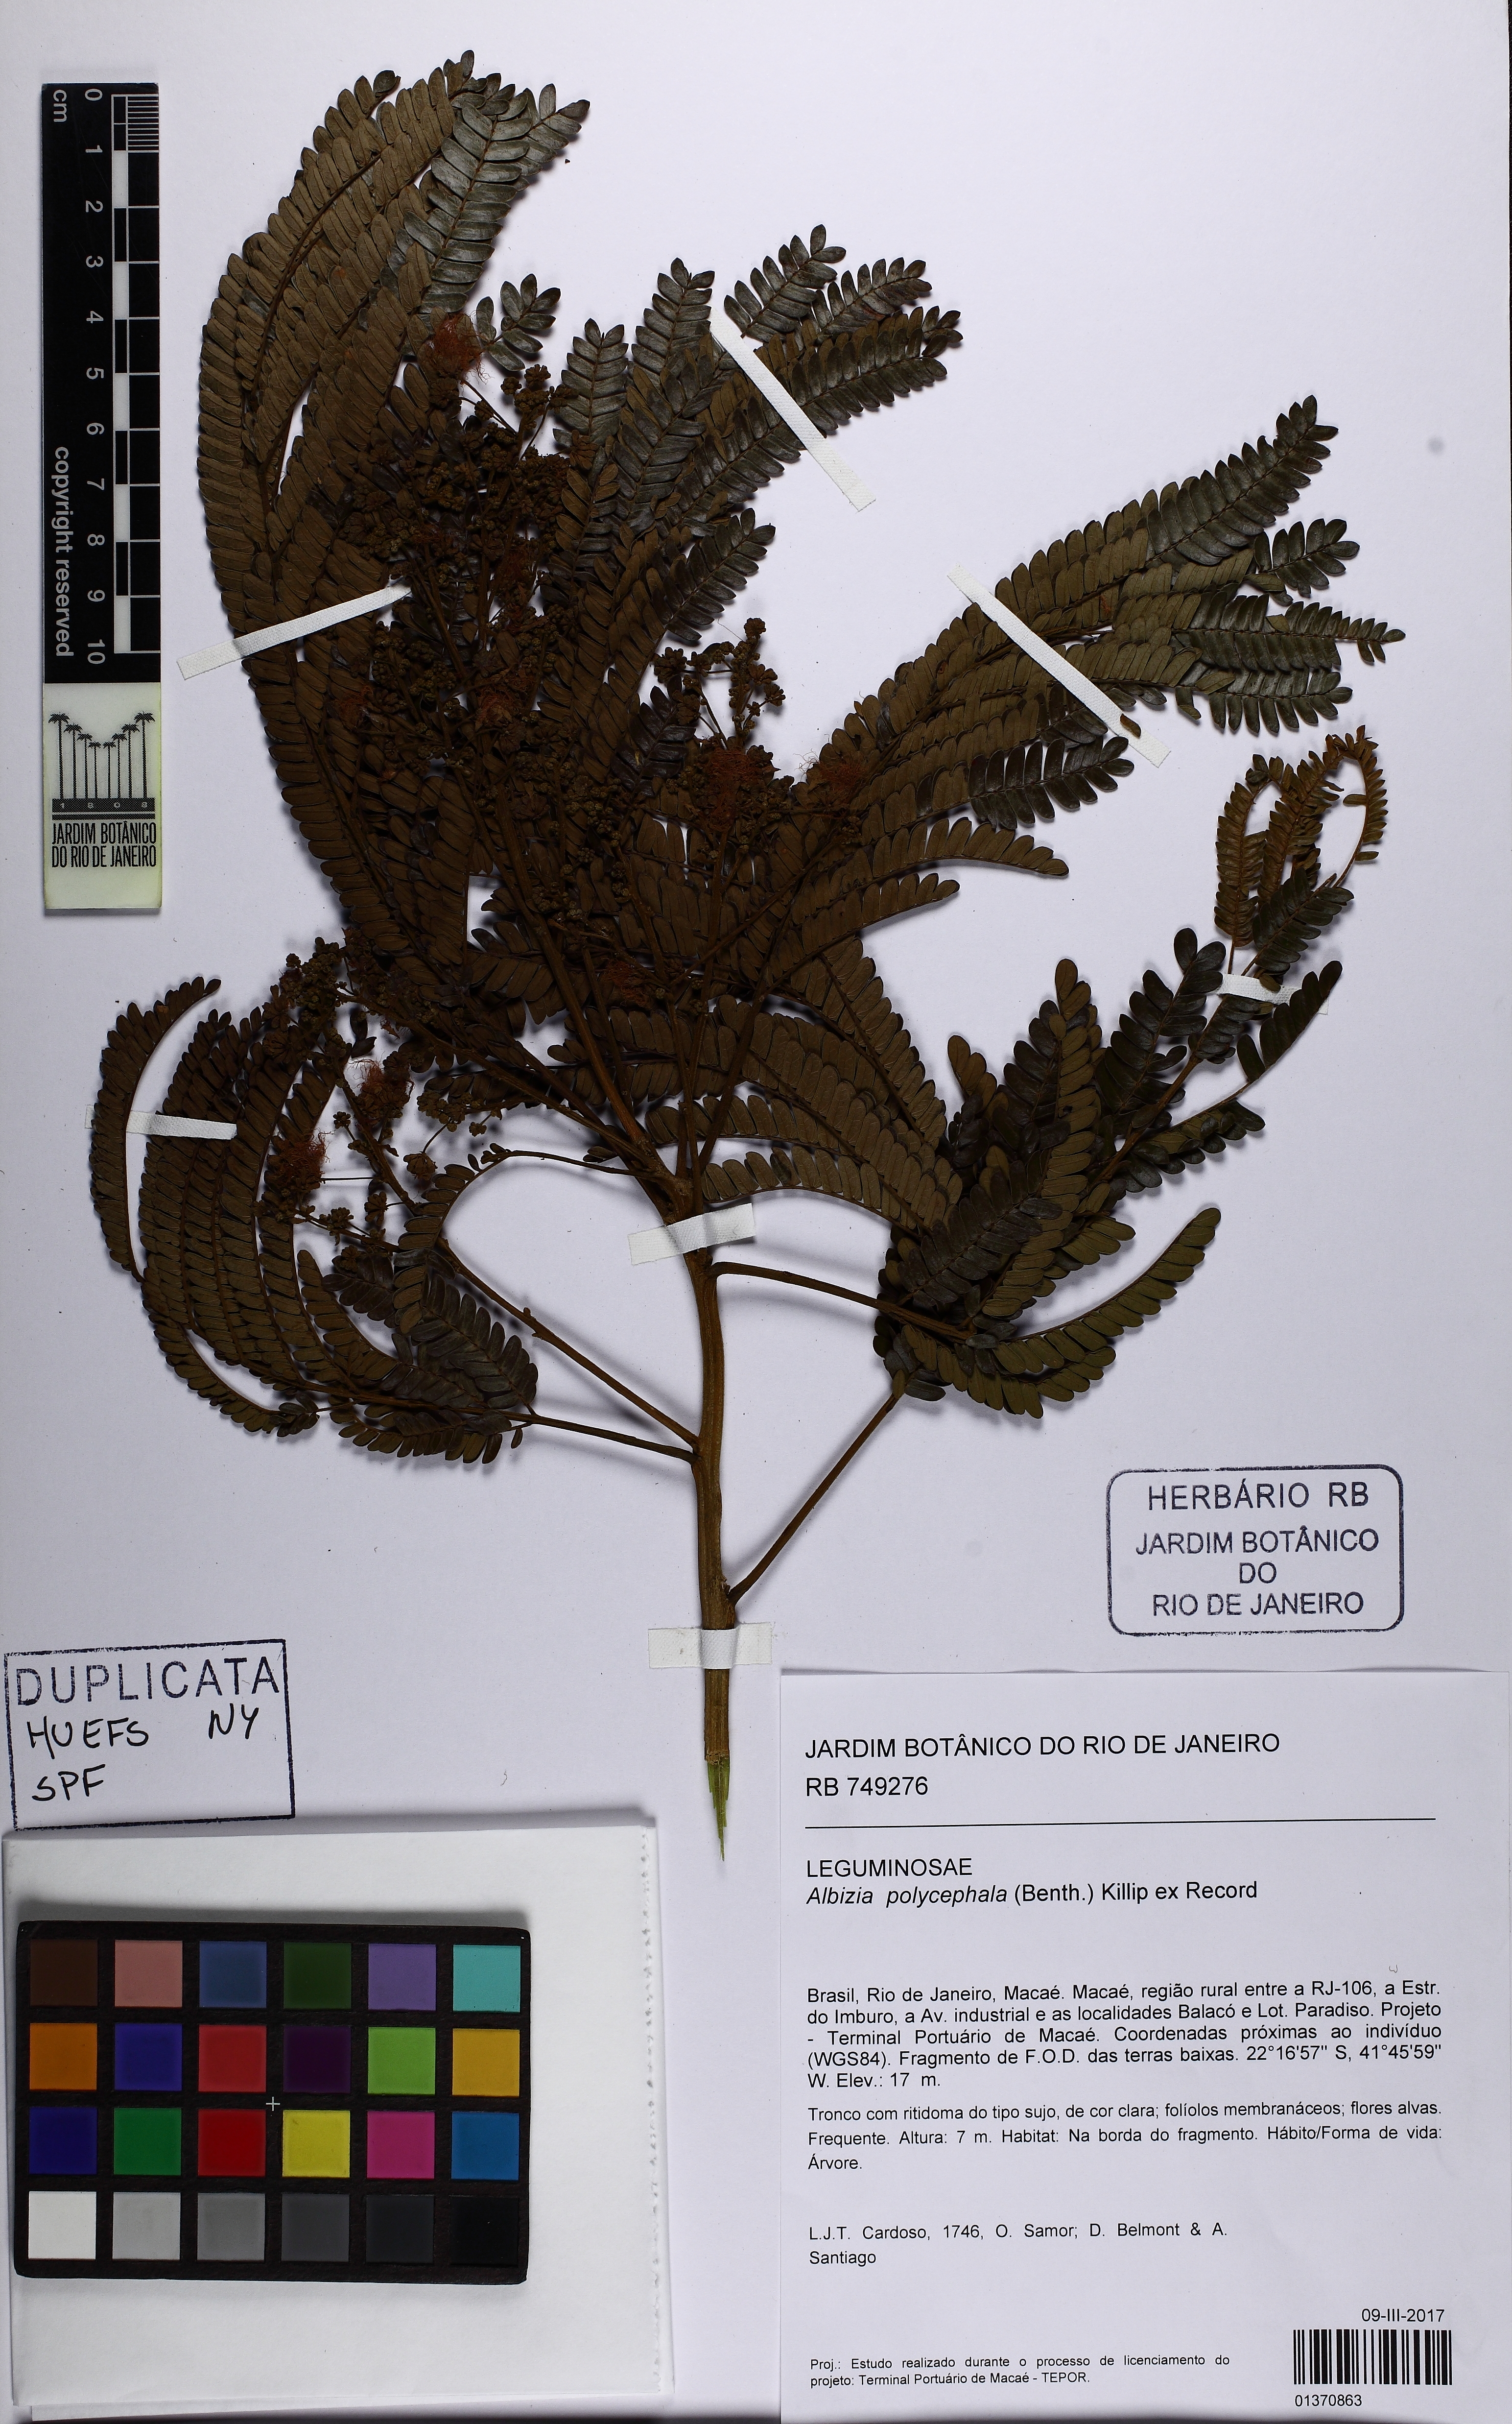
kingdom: Plantae
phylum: Tracheophyta
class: Magnoliopsida
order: Fabales
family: Fabaceae
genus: Albizia
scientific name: Albizia polycephala
